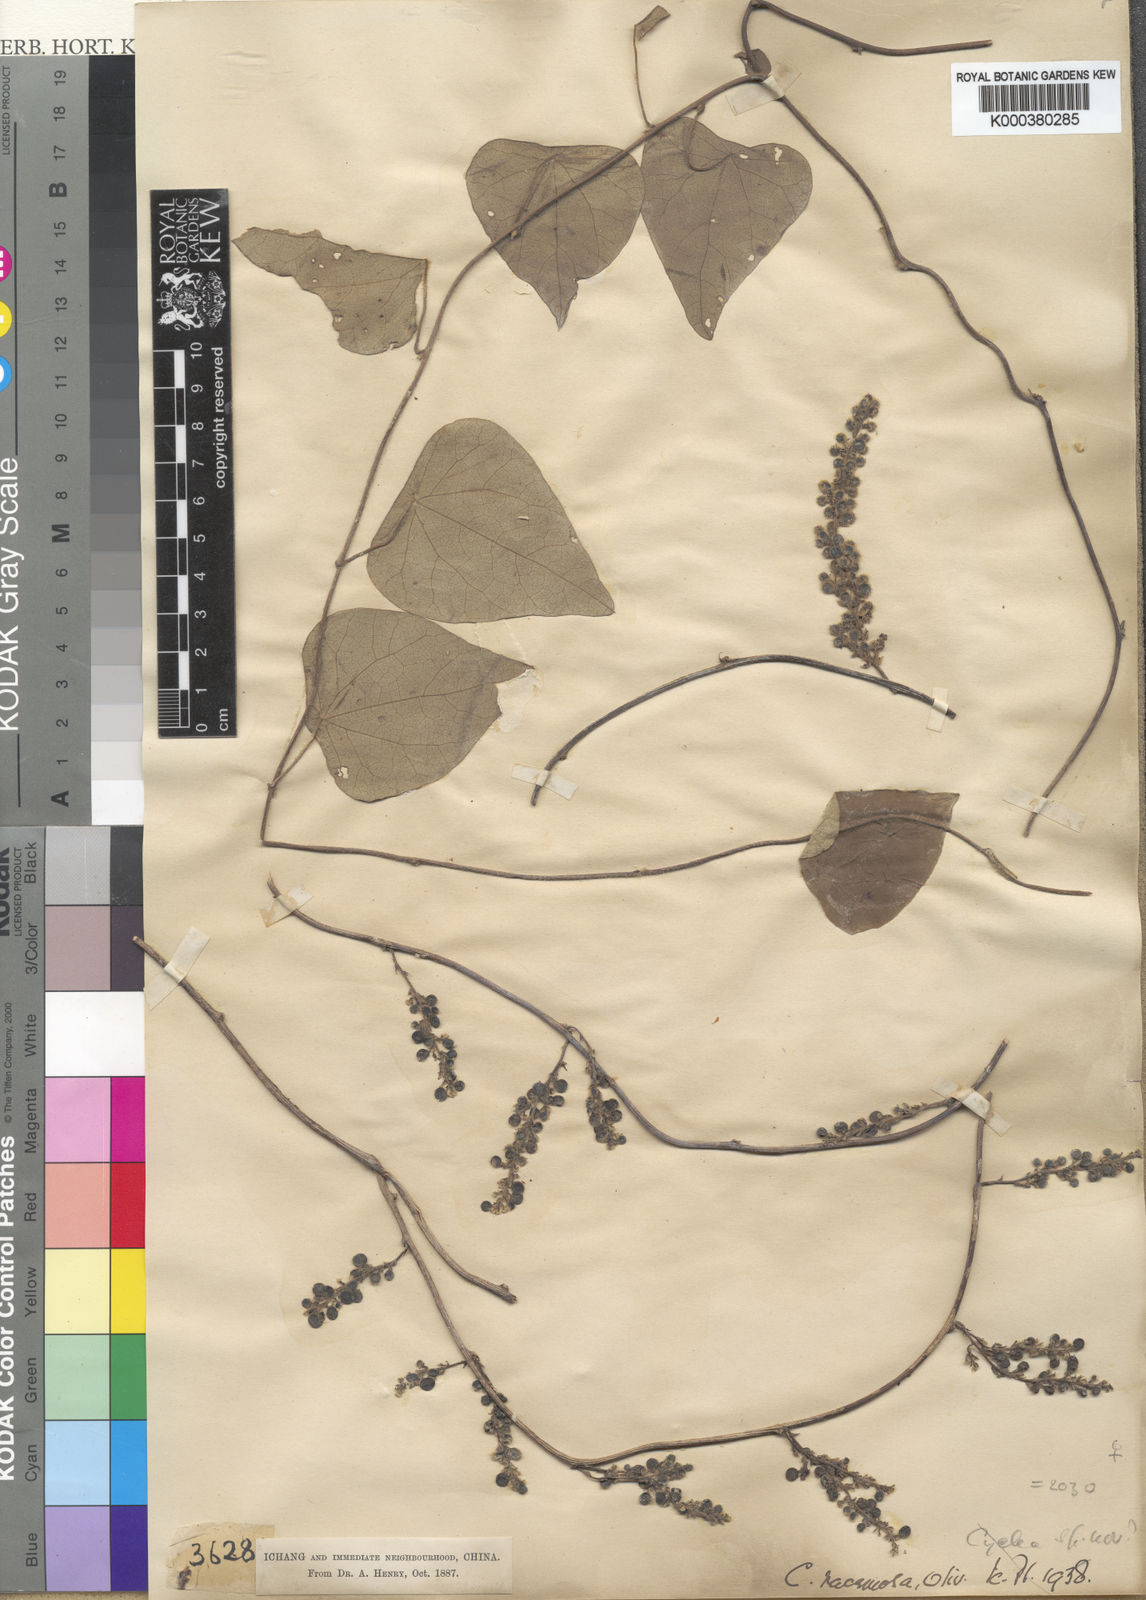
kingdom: Plantae
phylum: Tracheophyta
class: Magnoliopsida
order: Ranunculales
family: Menispermaceae
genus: Cyclea
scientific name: Cyclea racemosa
